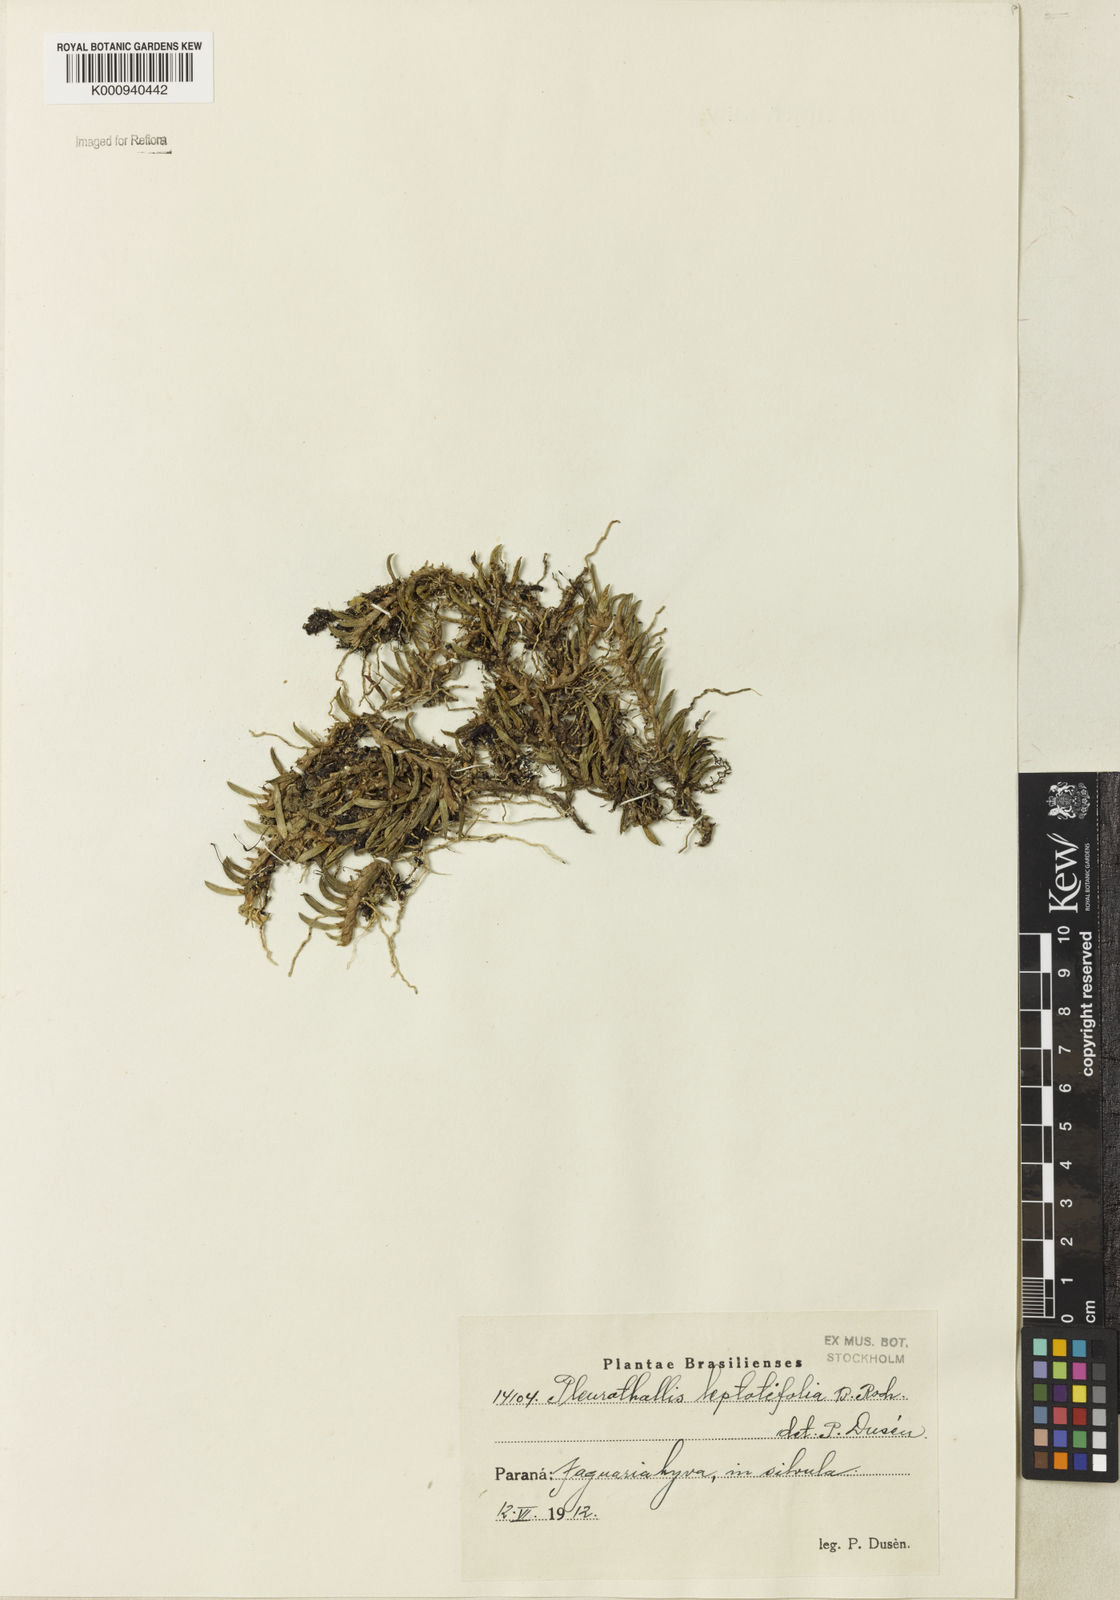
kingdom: Plantae
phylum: Tracheophyta
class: Liliopsida
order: Asparagales
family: Orchidaceae
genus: Acianthera
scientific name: Acianthera leptotifolia
